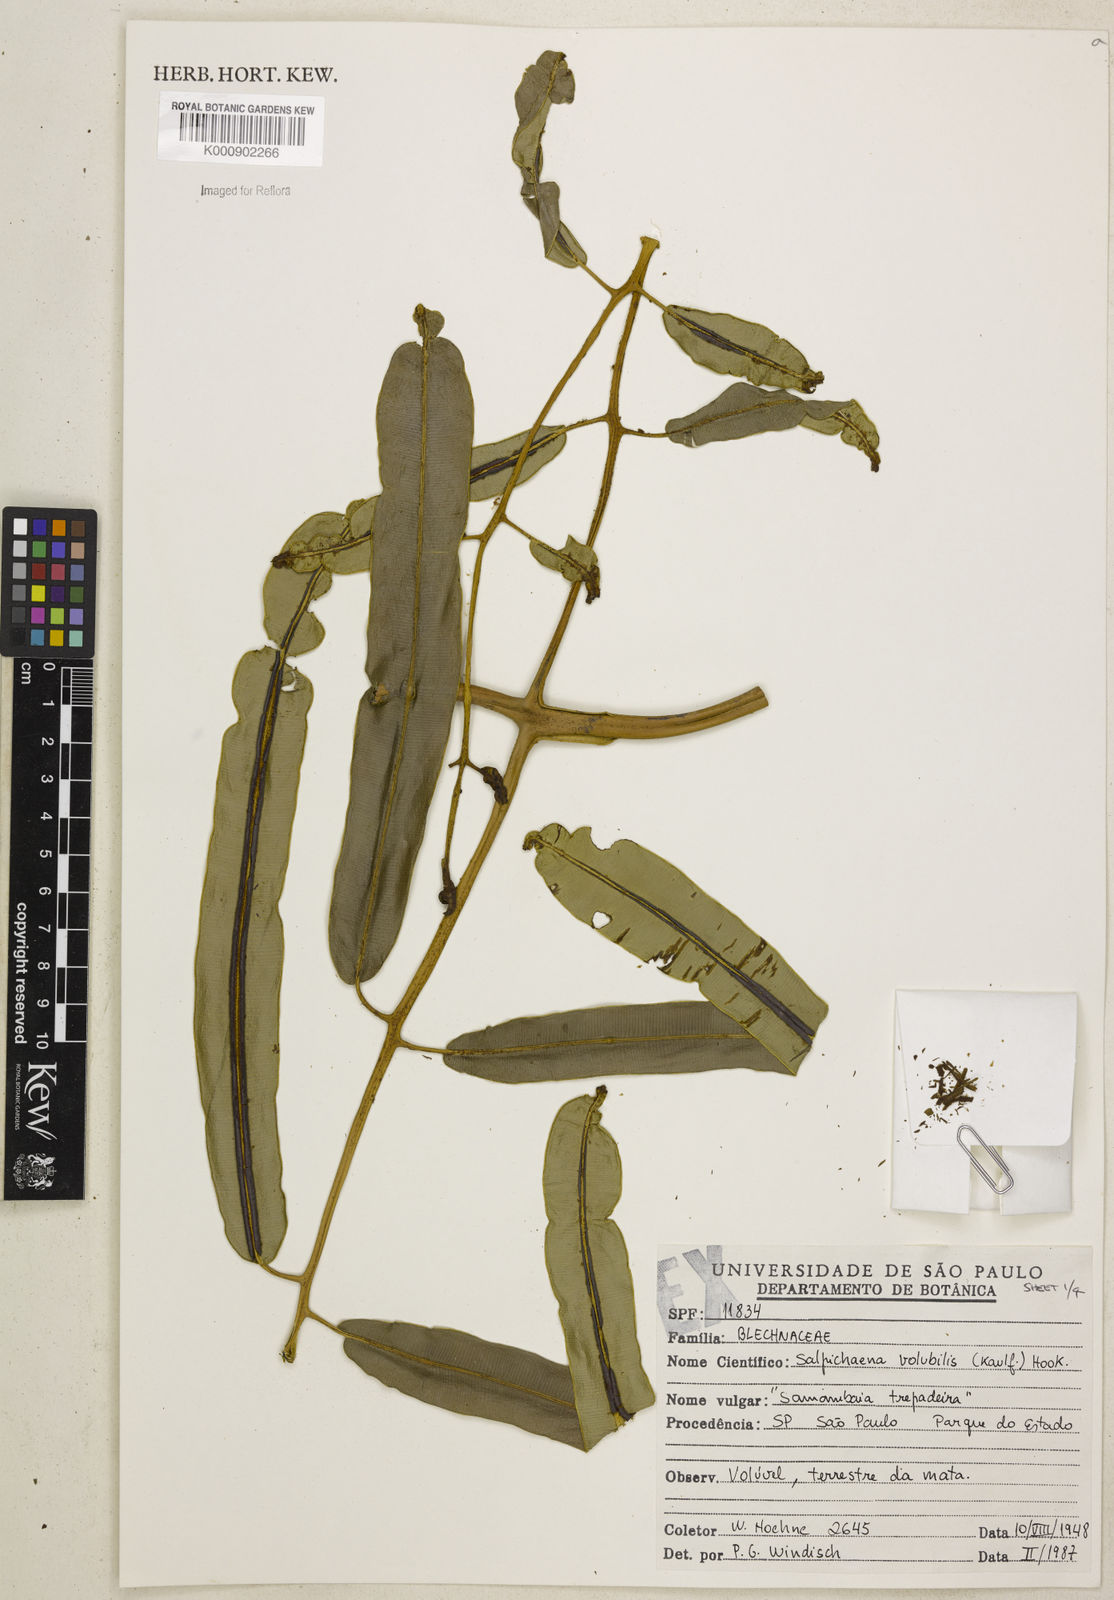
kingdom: Plantae
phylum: Tracheophyta
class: Polypodiopsida
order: Polypodiales
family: Blechnaceae
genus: Salpichlaena
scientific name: Salpichlaena volubilis
